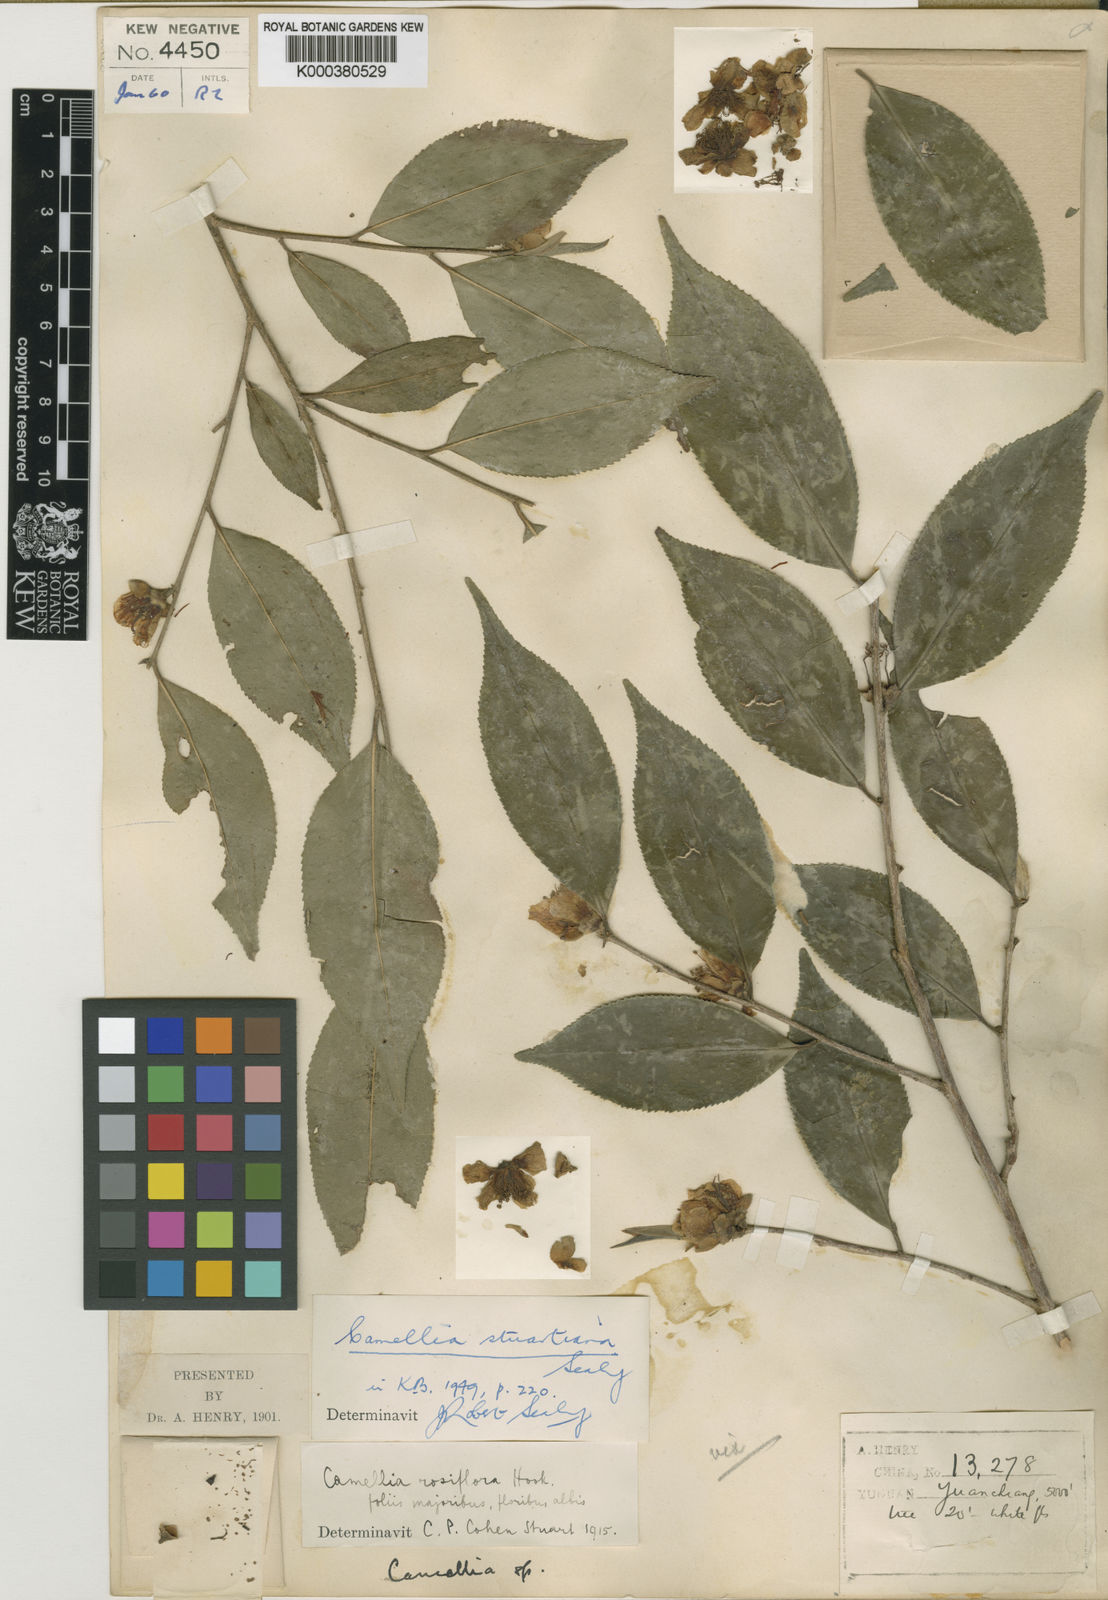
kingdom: Plantae
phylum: Tracheophyta
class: Magnoliopsida
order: Ericales
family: Theaceae
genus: Camellia
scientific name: Camellia stuartiana
